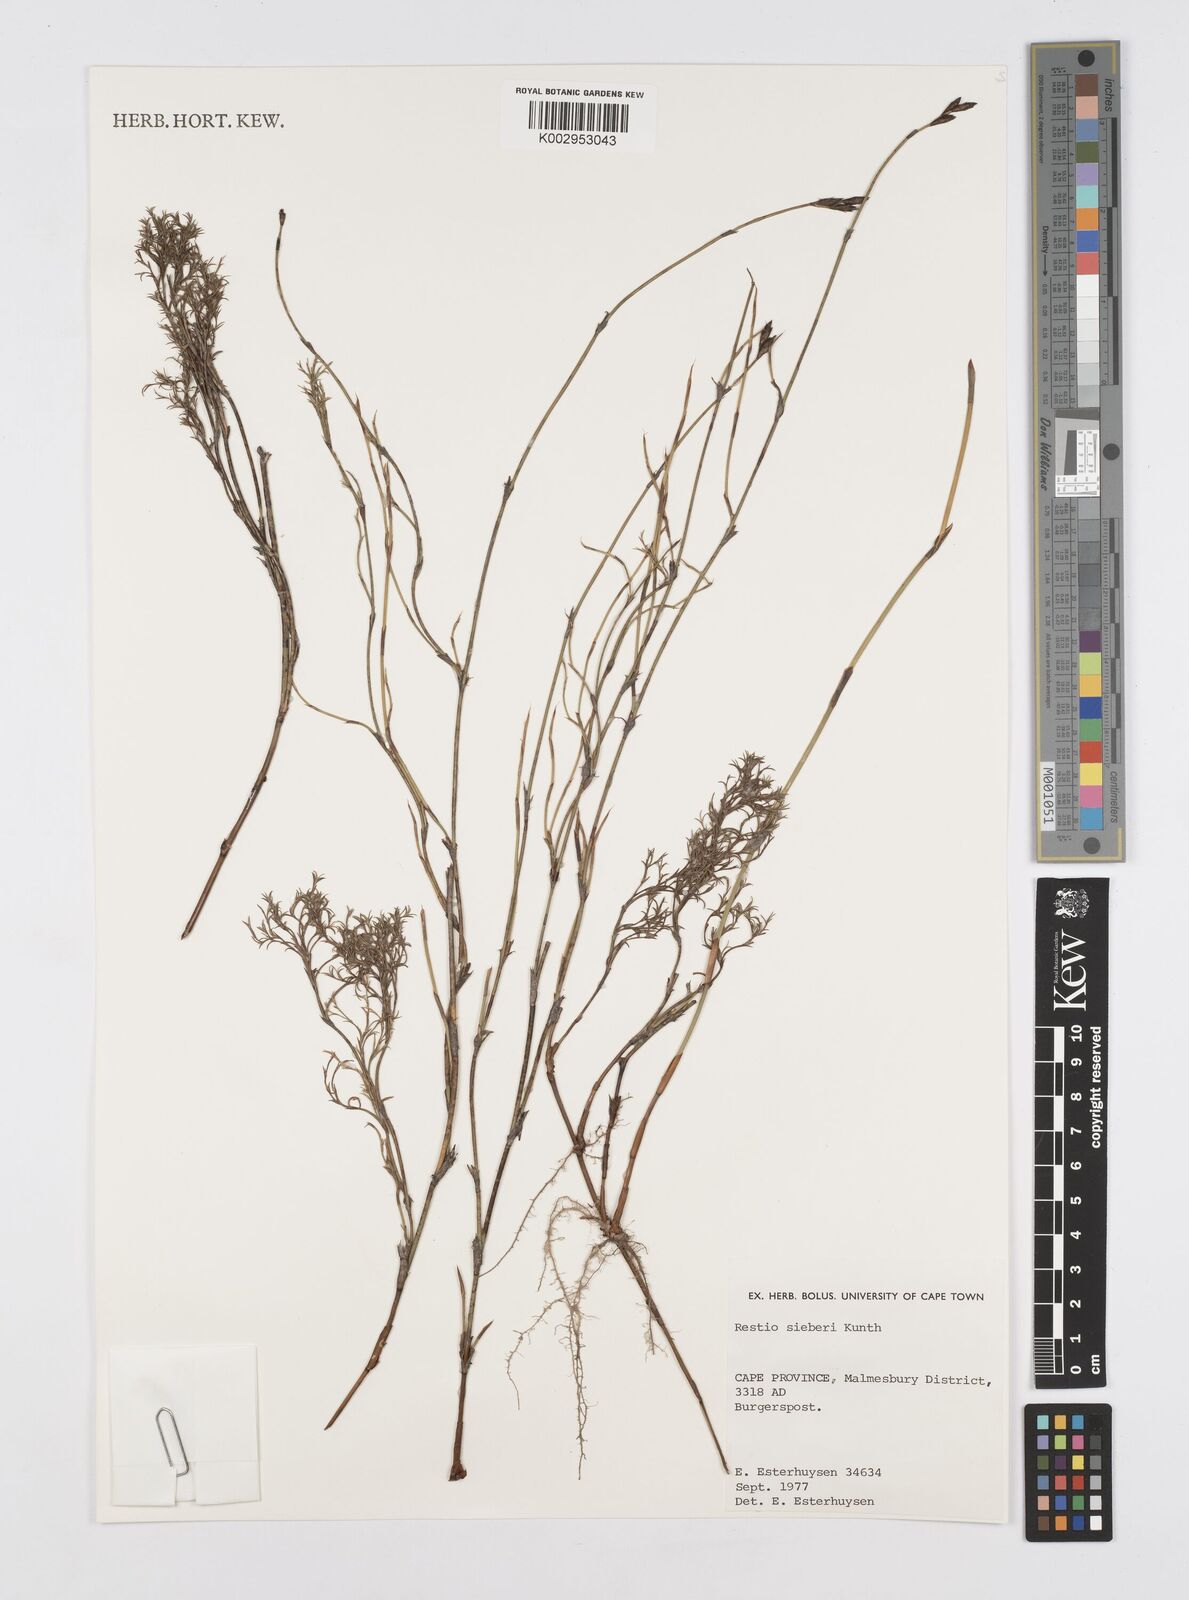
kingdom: Plantae
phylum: Tracheophyta
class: Liliopsida
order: Poales
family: Restionaceae
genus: Restio
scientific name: Restio sieberi
